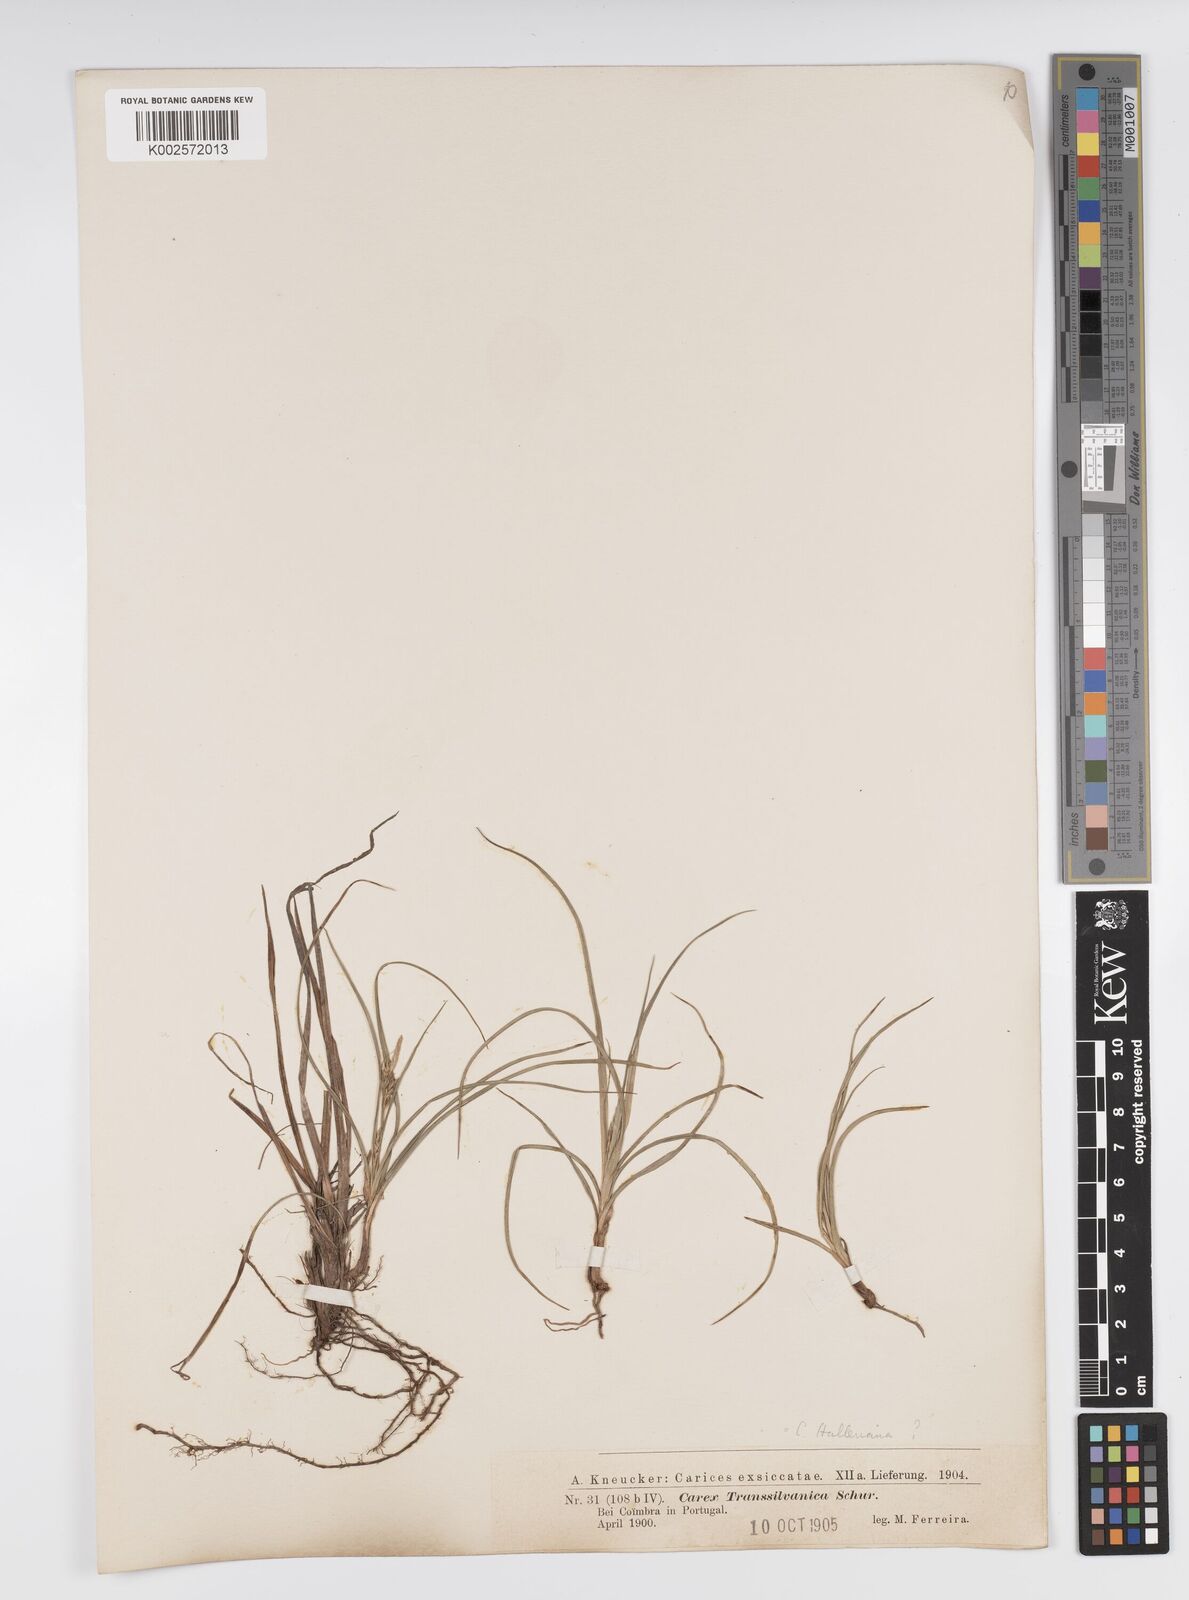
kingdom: Plantae
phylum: Tracheophyta
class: Liliopsida
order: Poales
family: Cyperaceae
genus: Carex
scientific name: Carex halleriana
